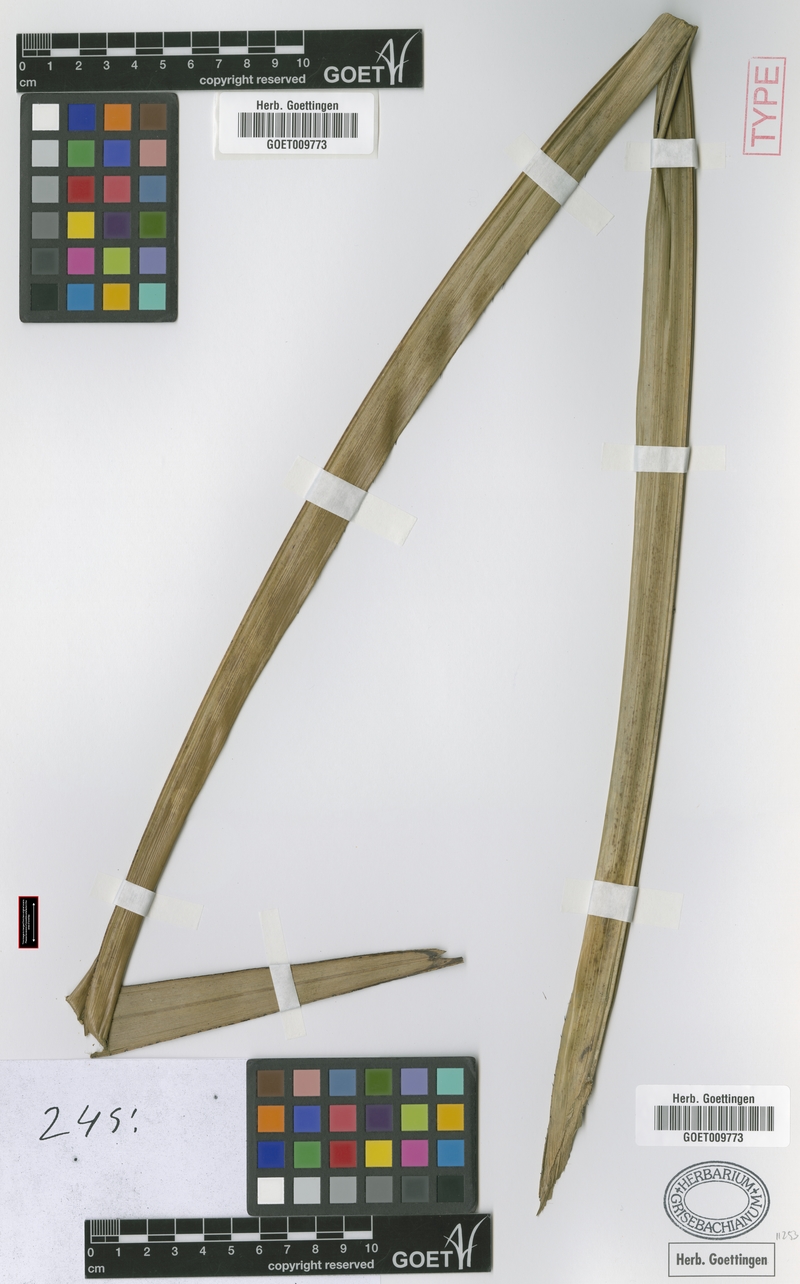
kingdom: Plantae
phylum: Tracheophyta
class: Liliopsida
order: Arecales
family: Arecaceae
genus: Astrocaryum
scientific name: Astrocaryum aculeatum
